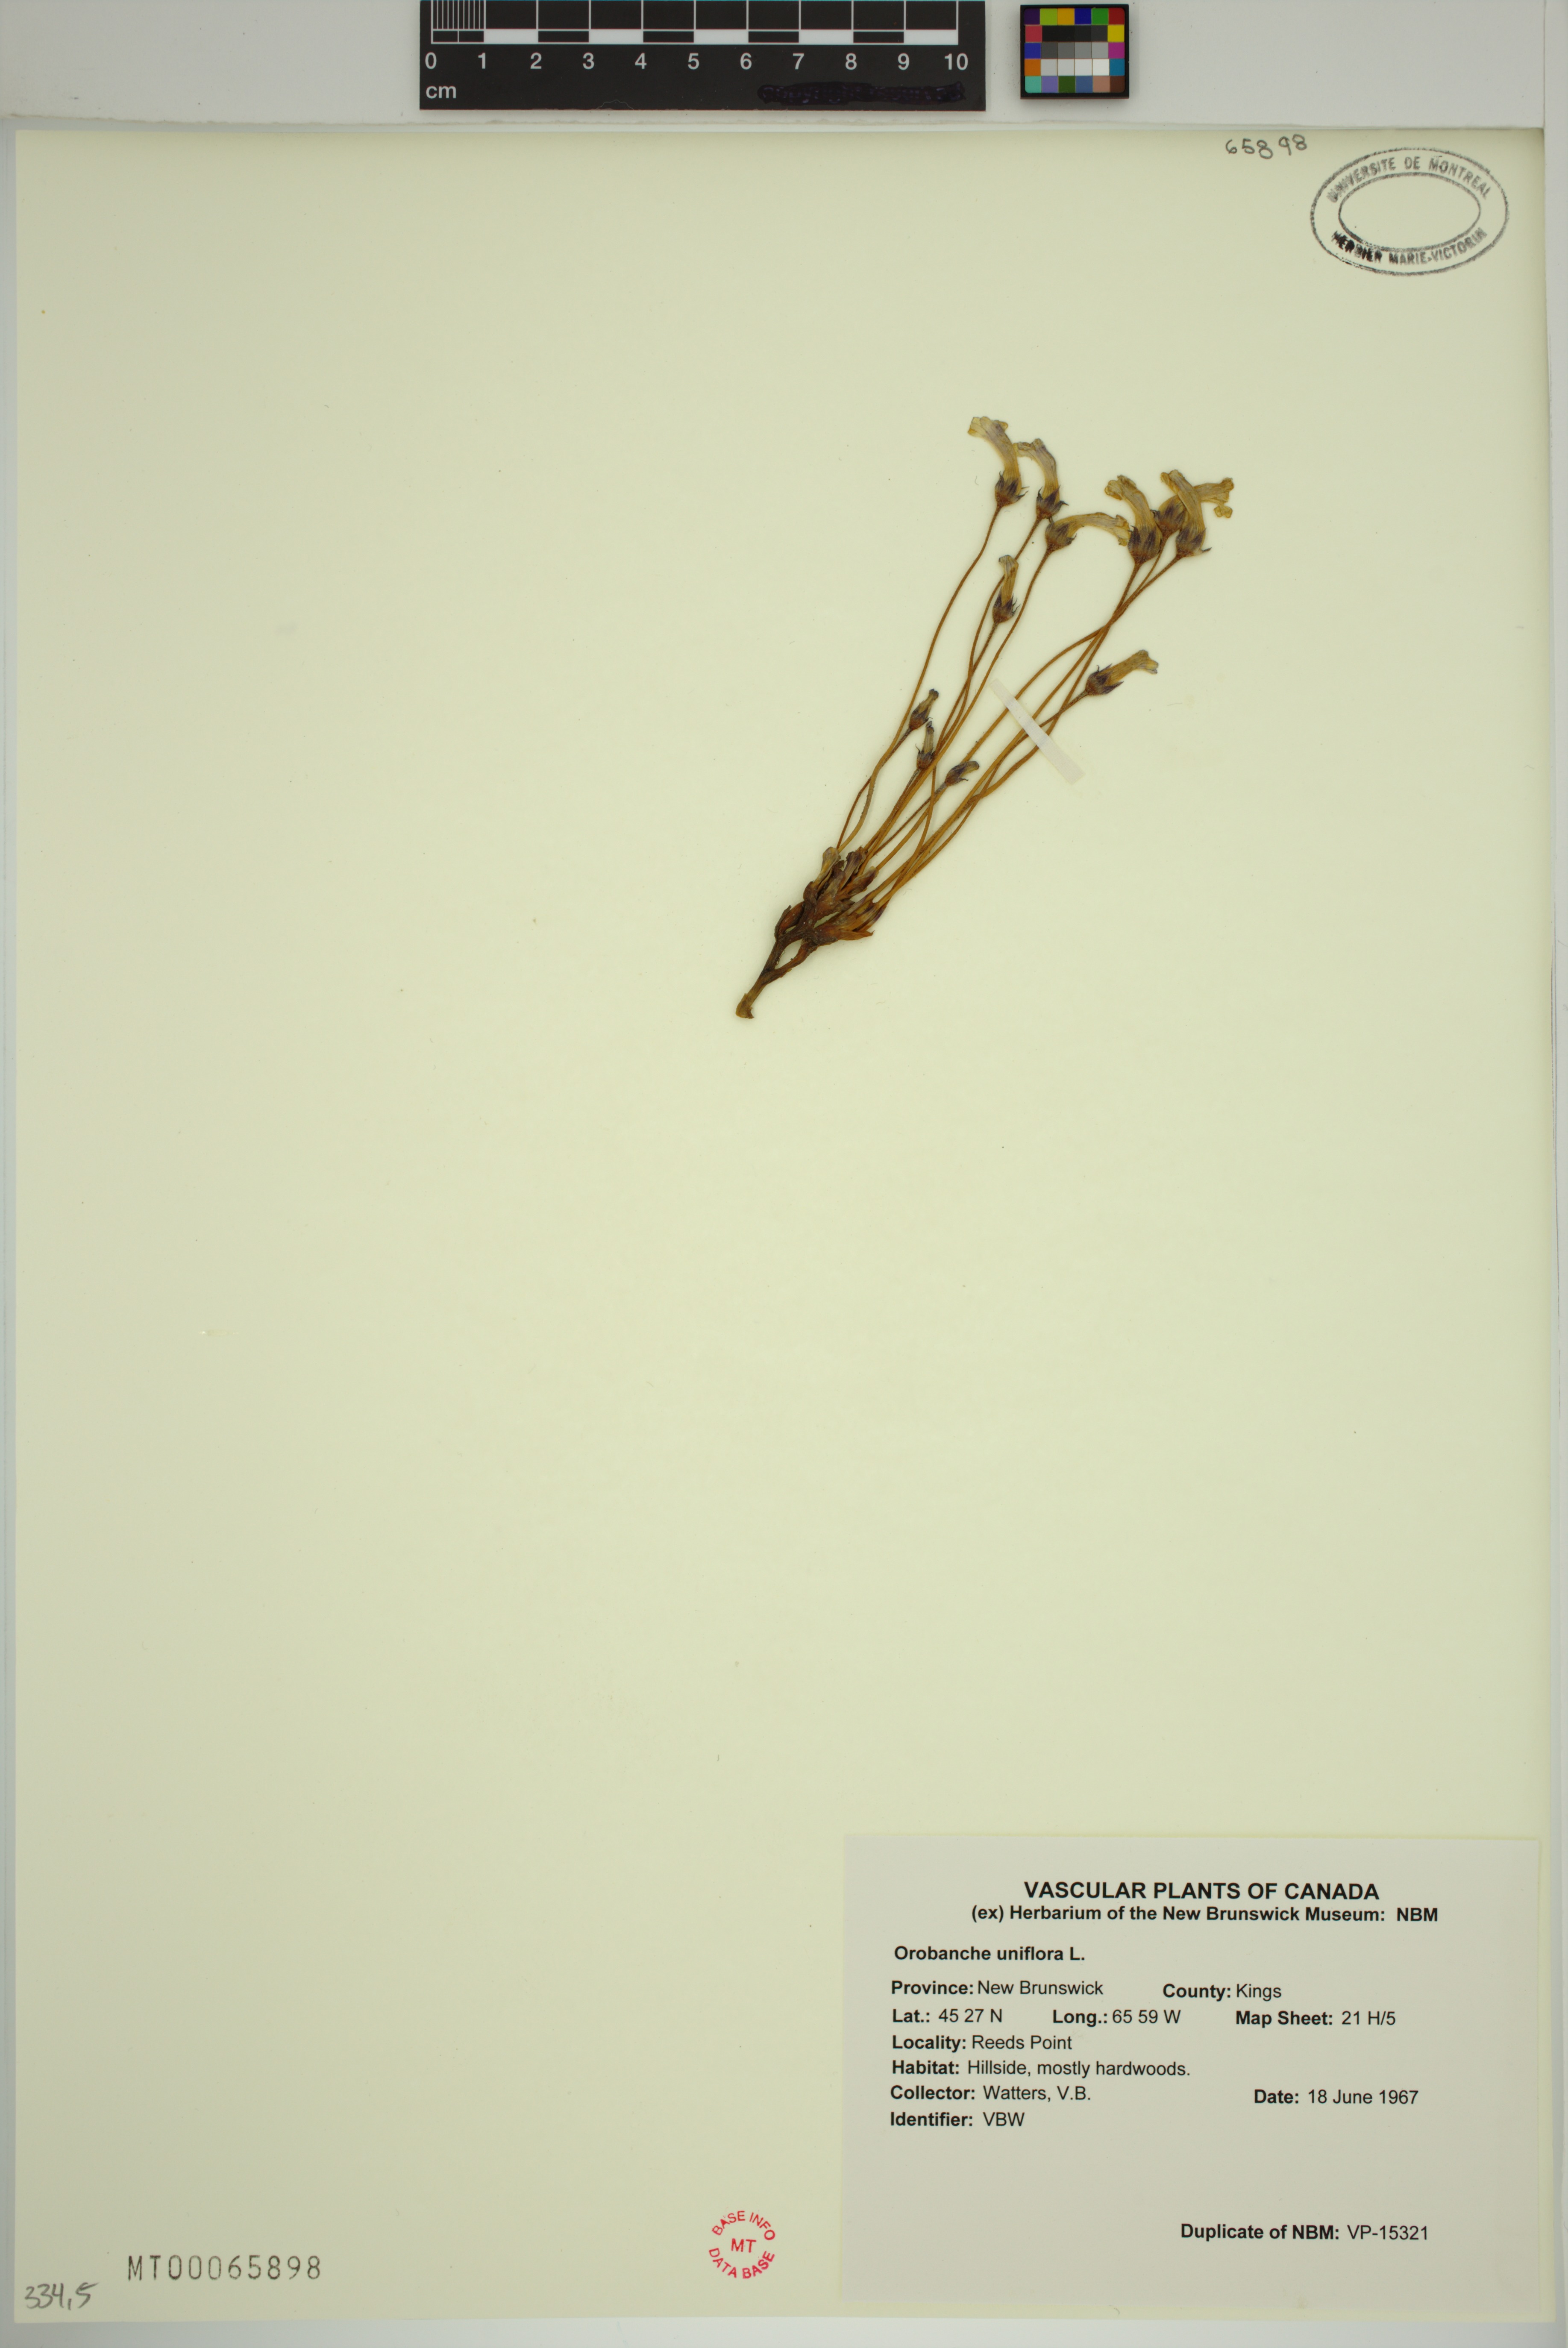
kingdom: Plantae
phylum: Tracheophyta
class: Magnoliopsida
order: Lamiales
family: Orobanchaceae
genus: Aphyllon
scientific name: Aphyllon uniflorum
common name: One-flowered broomrape
